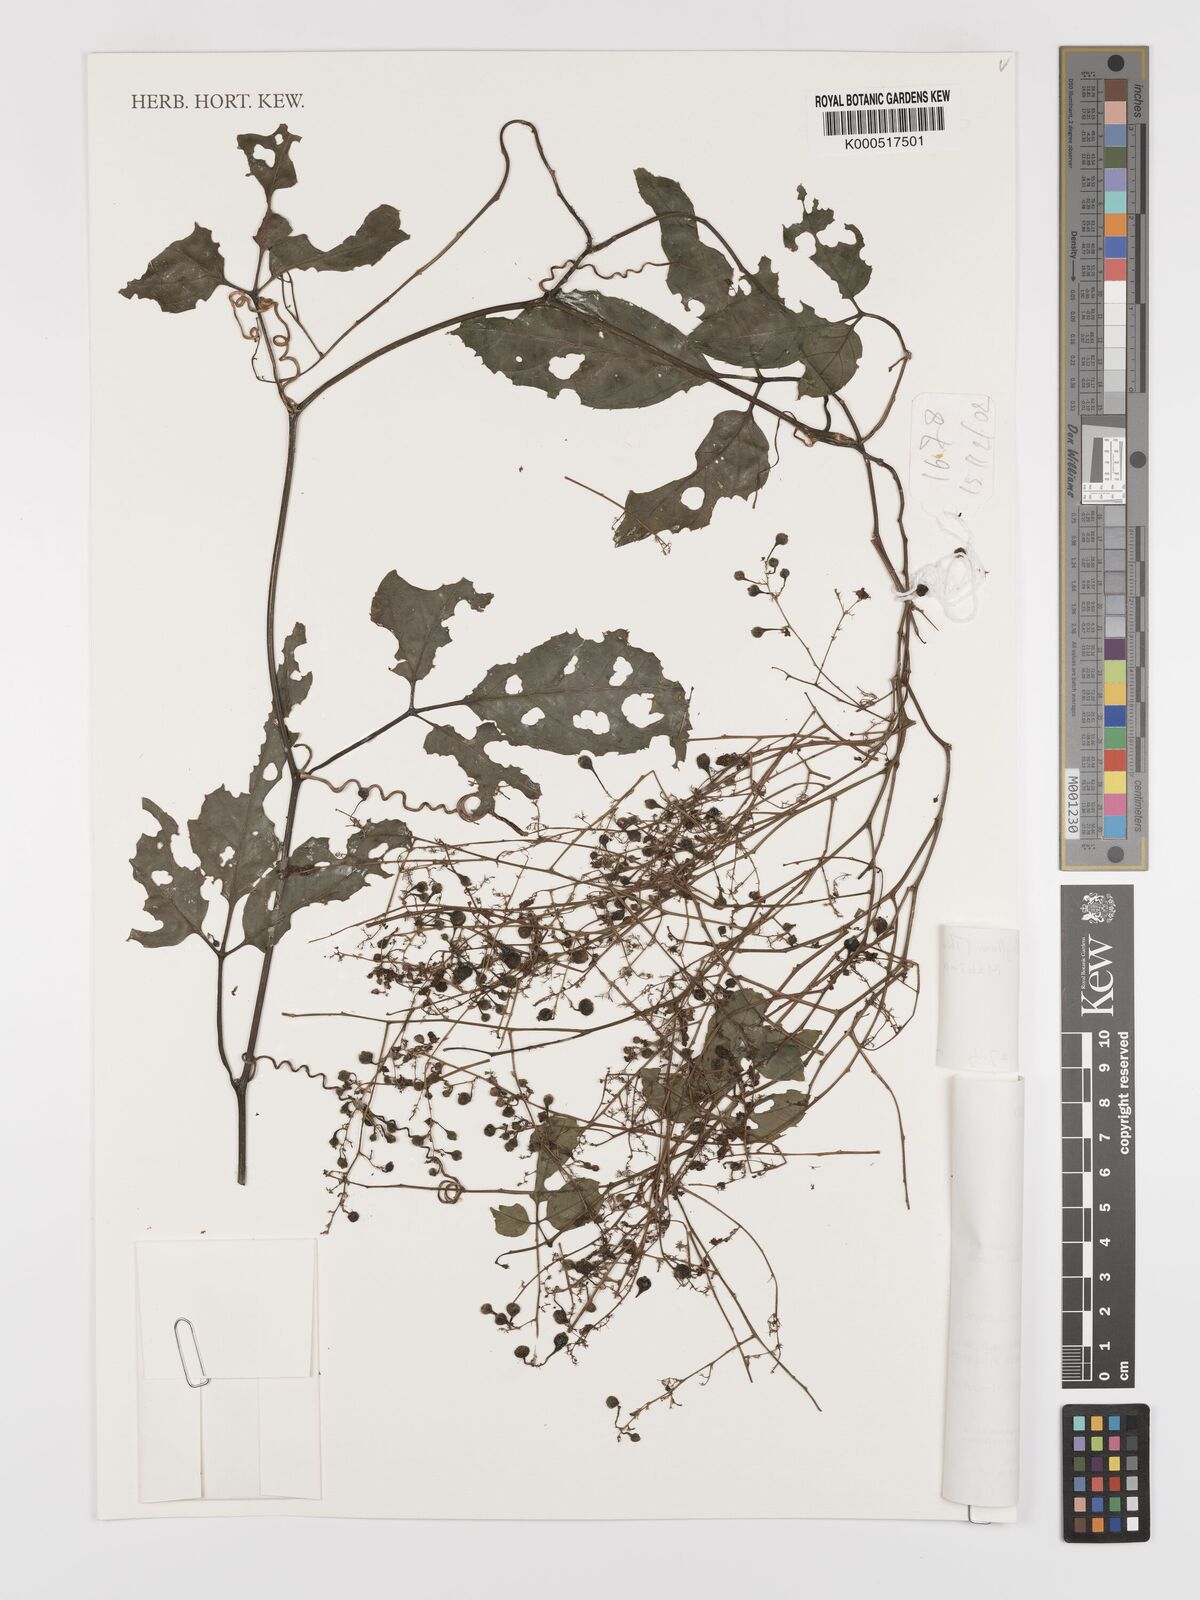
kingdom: Plantae
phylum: Tracheophyta
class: Magnoliopsida
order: Cucurbitales
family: Cucurbitaceae
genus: Gynostemma
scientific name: Gynostemma pentaphyllum
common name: Gynostemma
